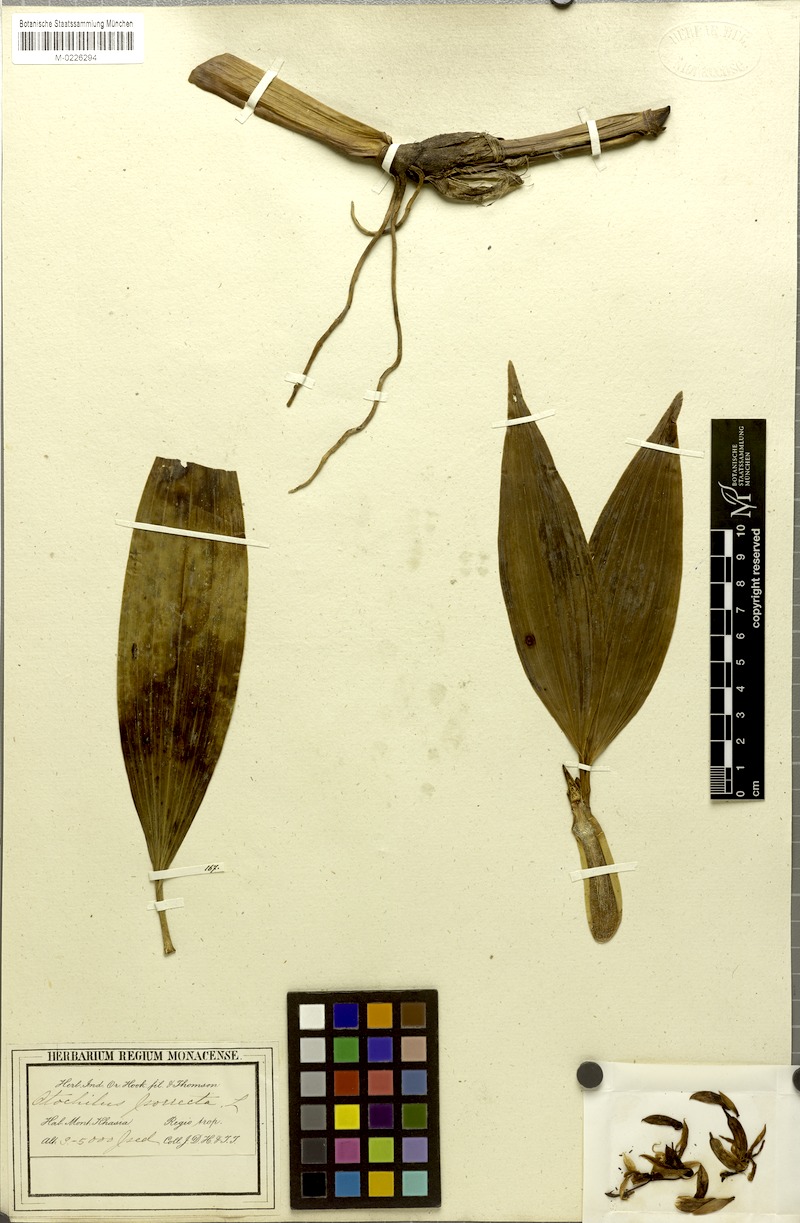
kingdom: Plantae
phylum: Tracheophyta
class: Liliopsida
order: Asparagales
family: Orchidaceae
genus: Coelogyne
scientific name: Coelogyne porrecta
